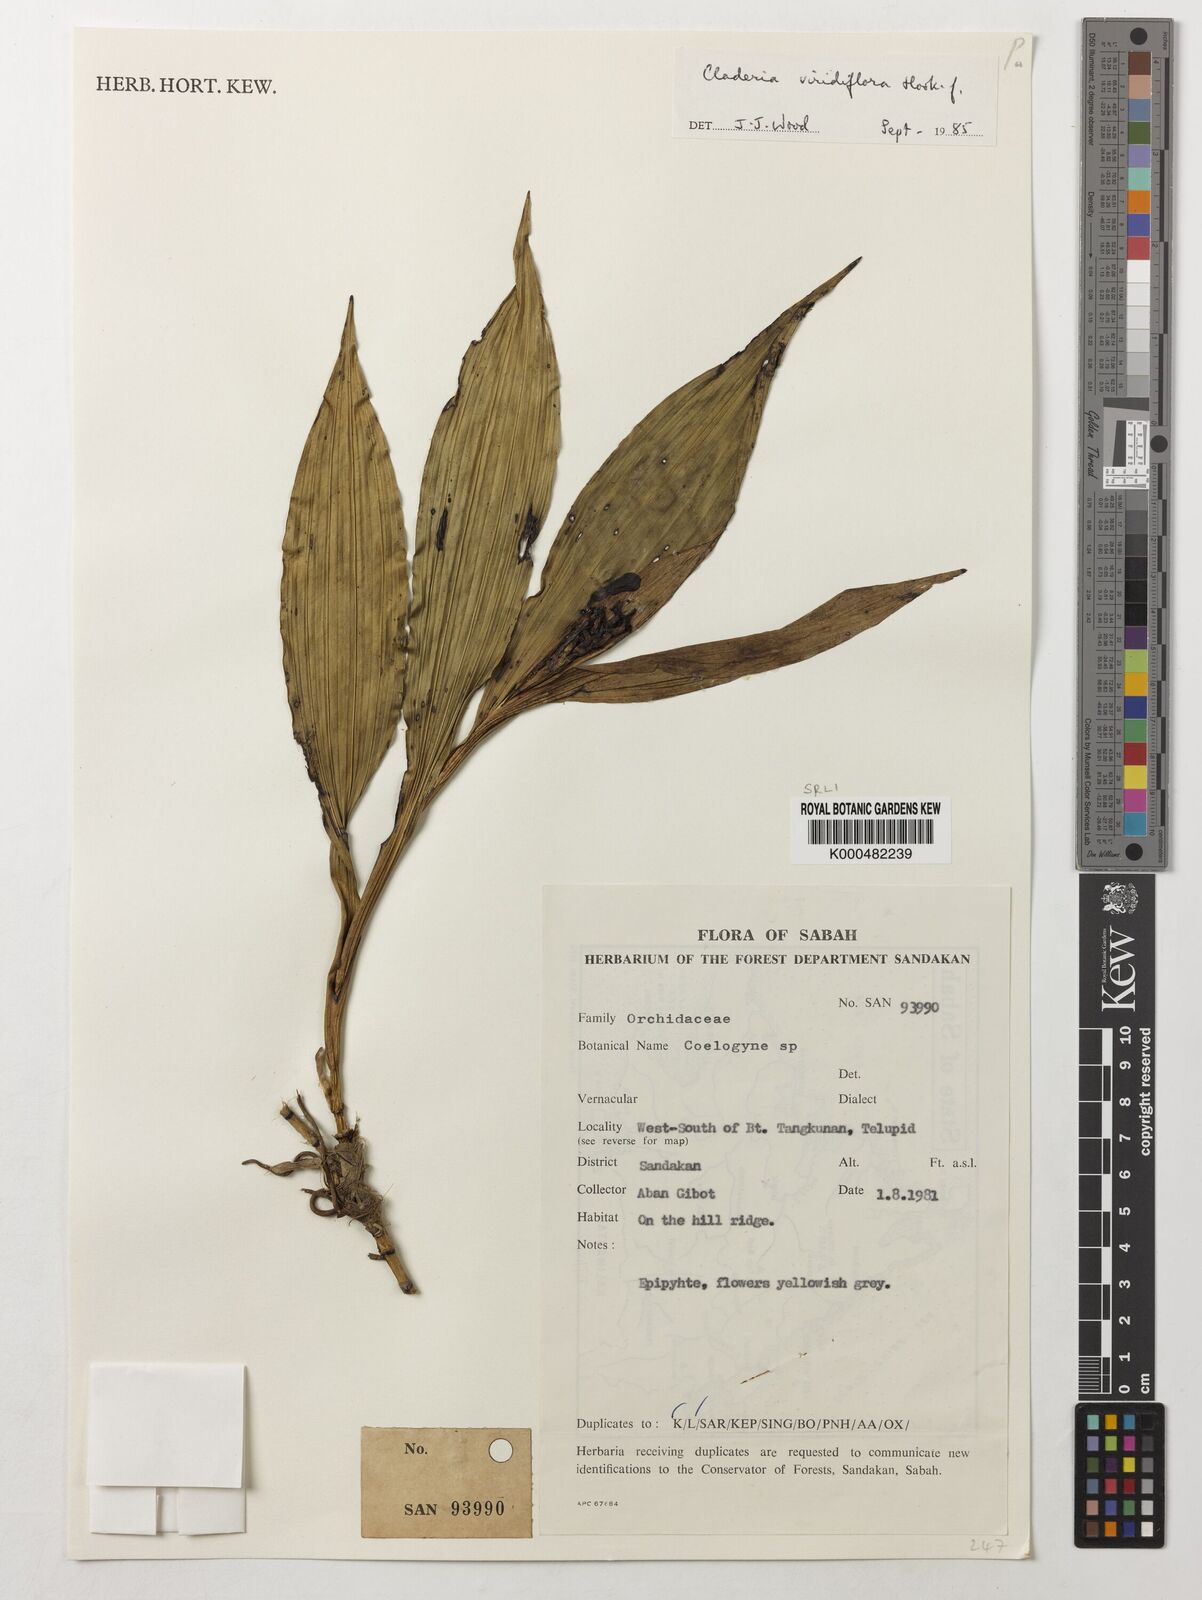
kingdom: Plantae
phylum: Tracheophyta
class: Liliopsida
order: Asparagales
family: Orchidaceae
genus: Claderia
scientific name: Claderia
